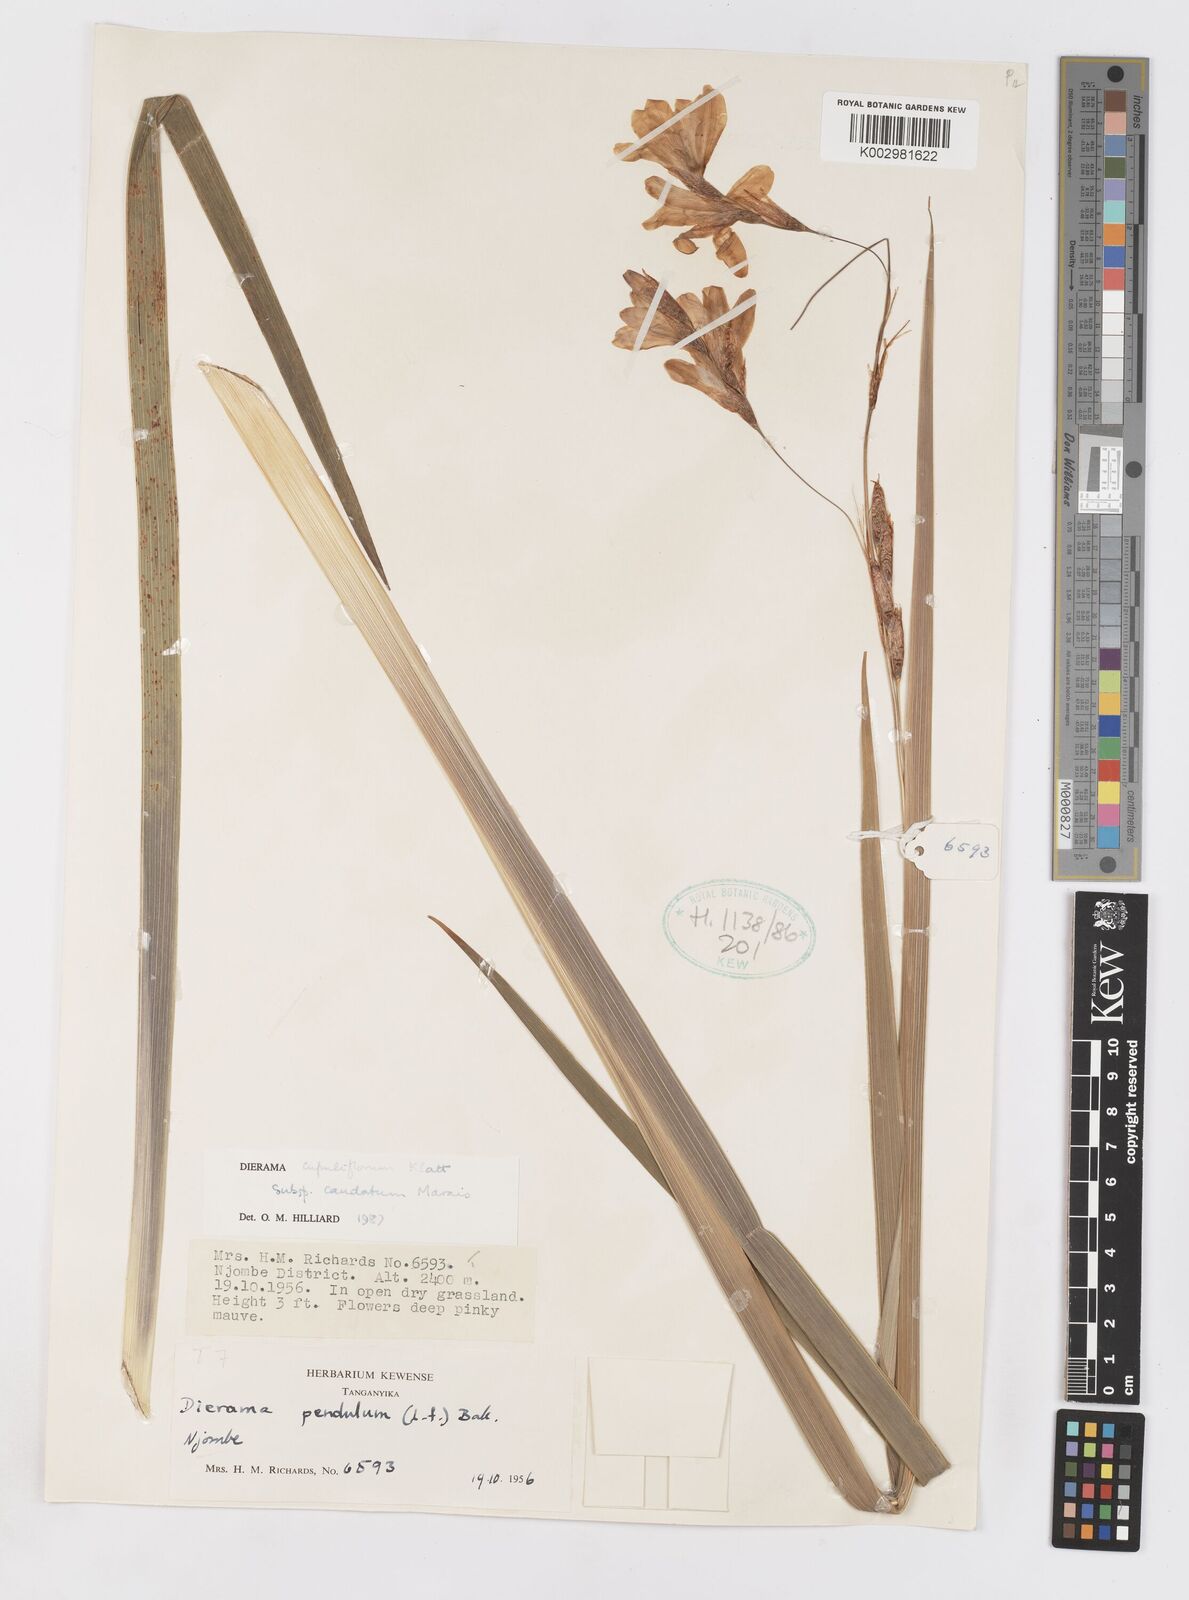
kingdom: Plantae
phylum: Tracheophyta
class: Liliopsida
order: Asparagales
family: Iridaceae
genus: Dierama
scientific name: Dierama cupuliflorum
